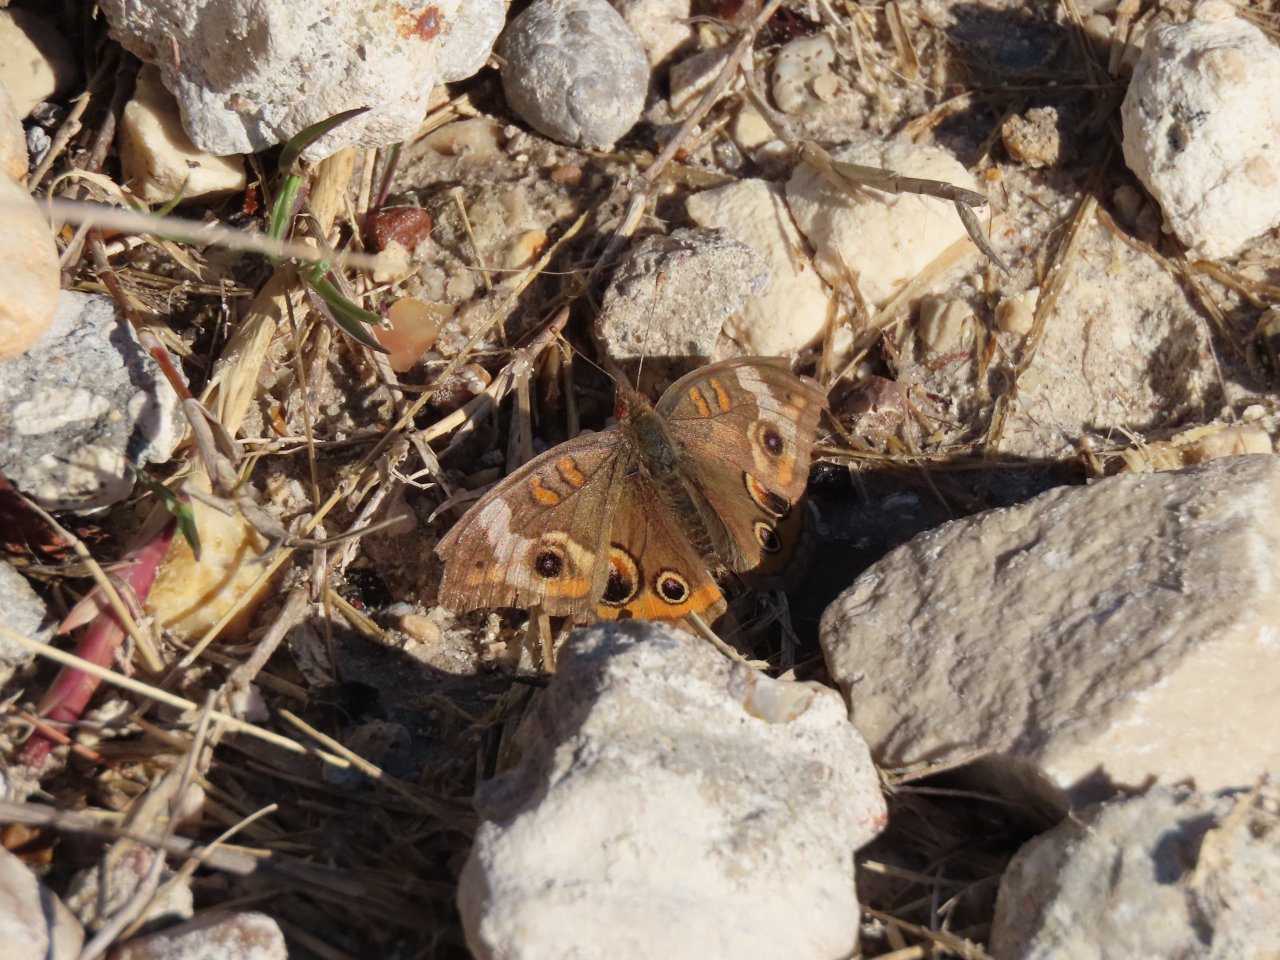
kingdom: Animalia
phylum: Arthropoda
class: Insecta
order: Lepidoptera
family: Nymphalidae
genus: Junonia
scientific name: Junonia coenia
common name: Common Buckeye
